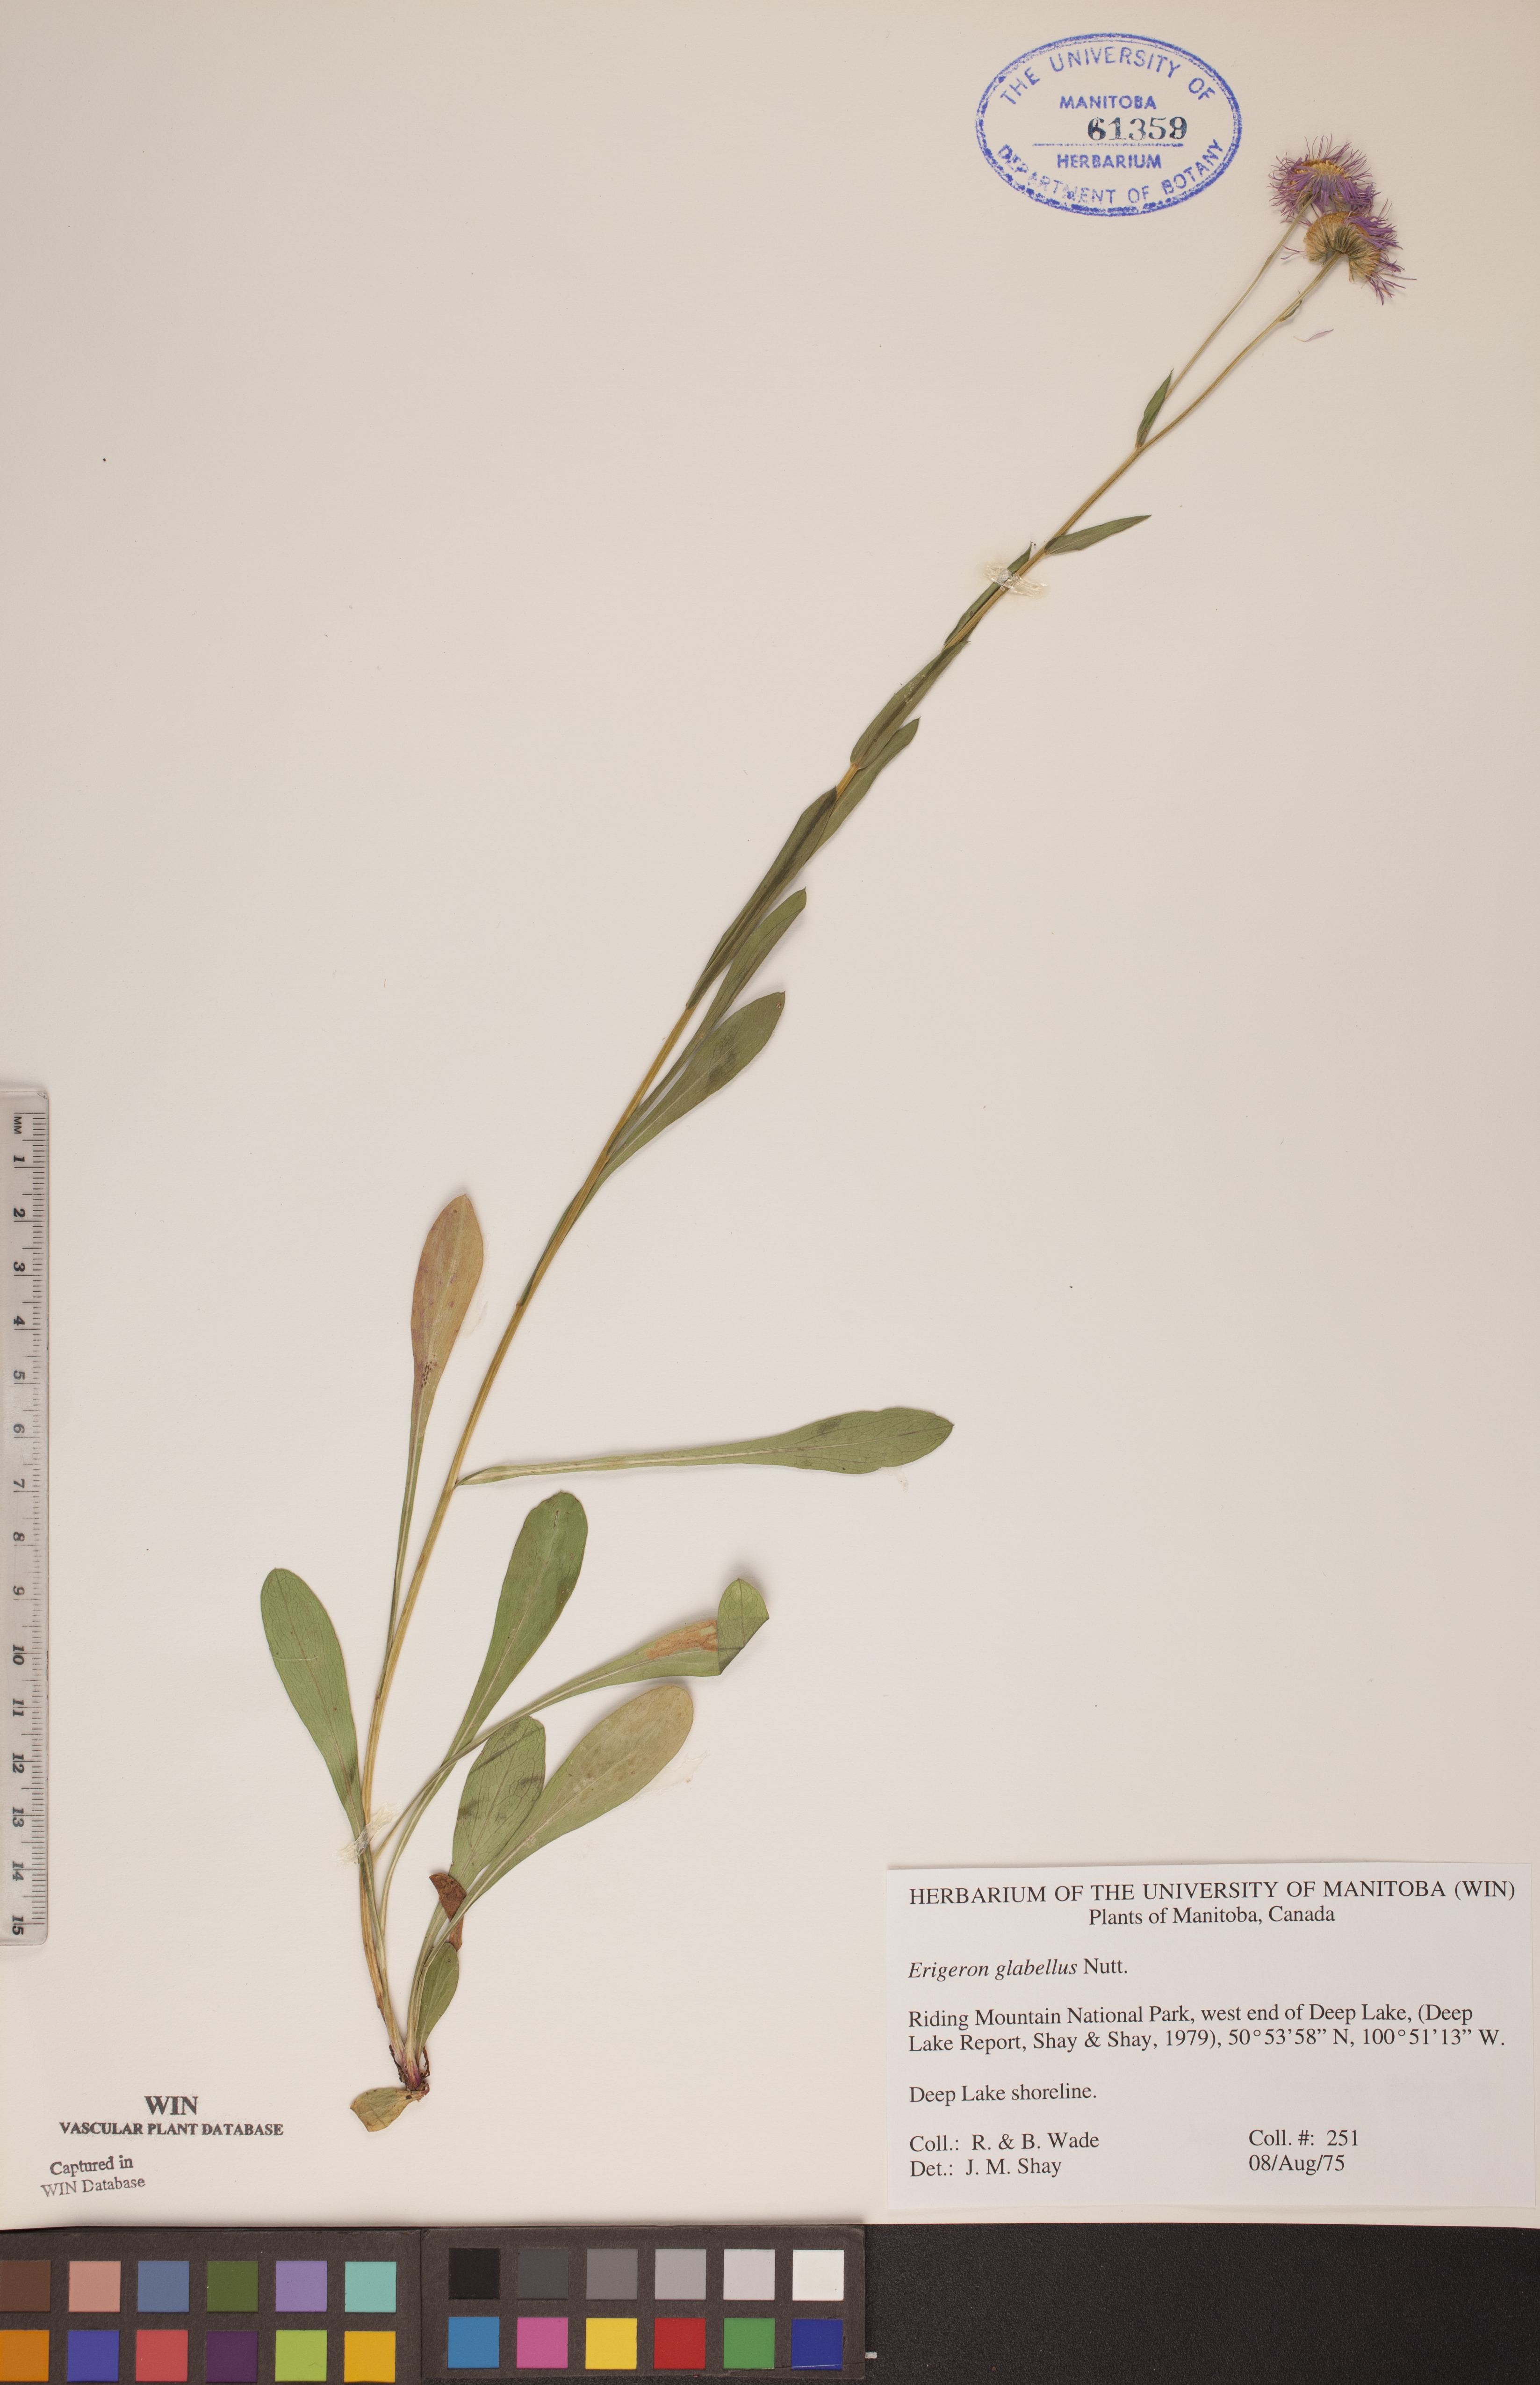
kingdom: Plantae
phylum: Tracheophyta
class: Magnoliopsida
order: Asterales
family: Asteraceae
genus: Erigeron
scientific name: Erigeron glabellus
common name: Smooth fleabane
